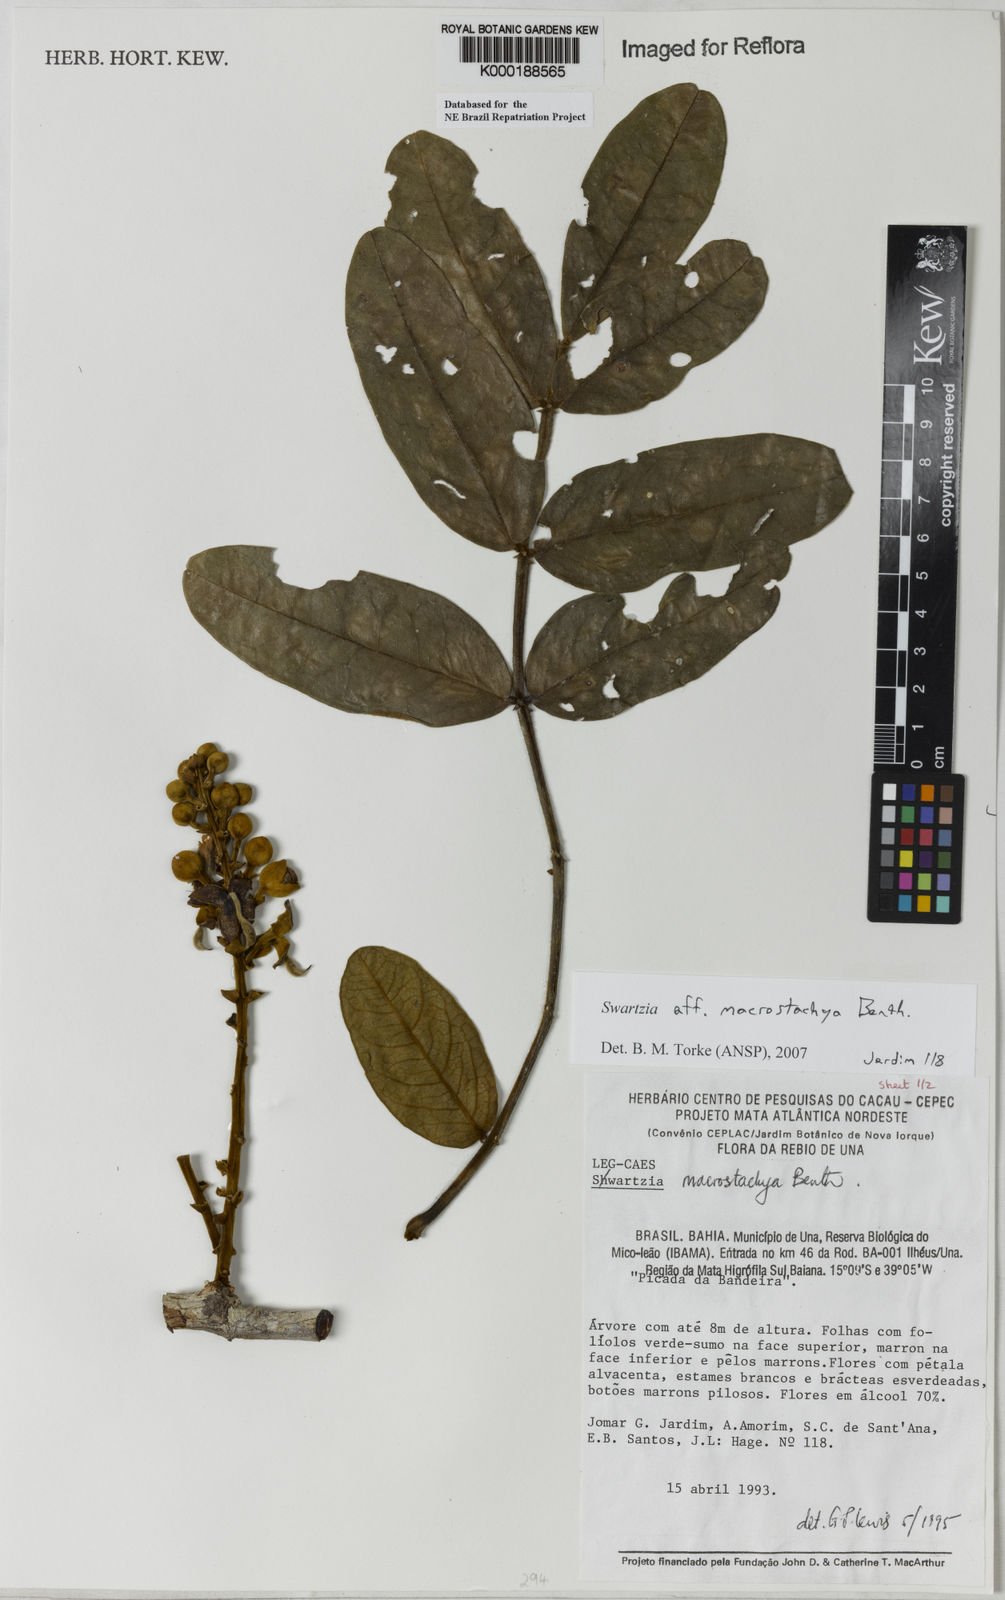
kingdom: Plantae
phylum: Tracheophyta
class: Magnoliopsida
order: Fabales
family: Fabaceae
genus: Swartzia
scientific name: Swartzia
